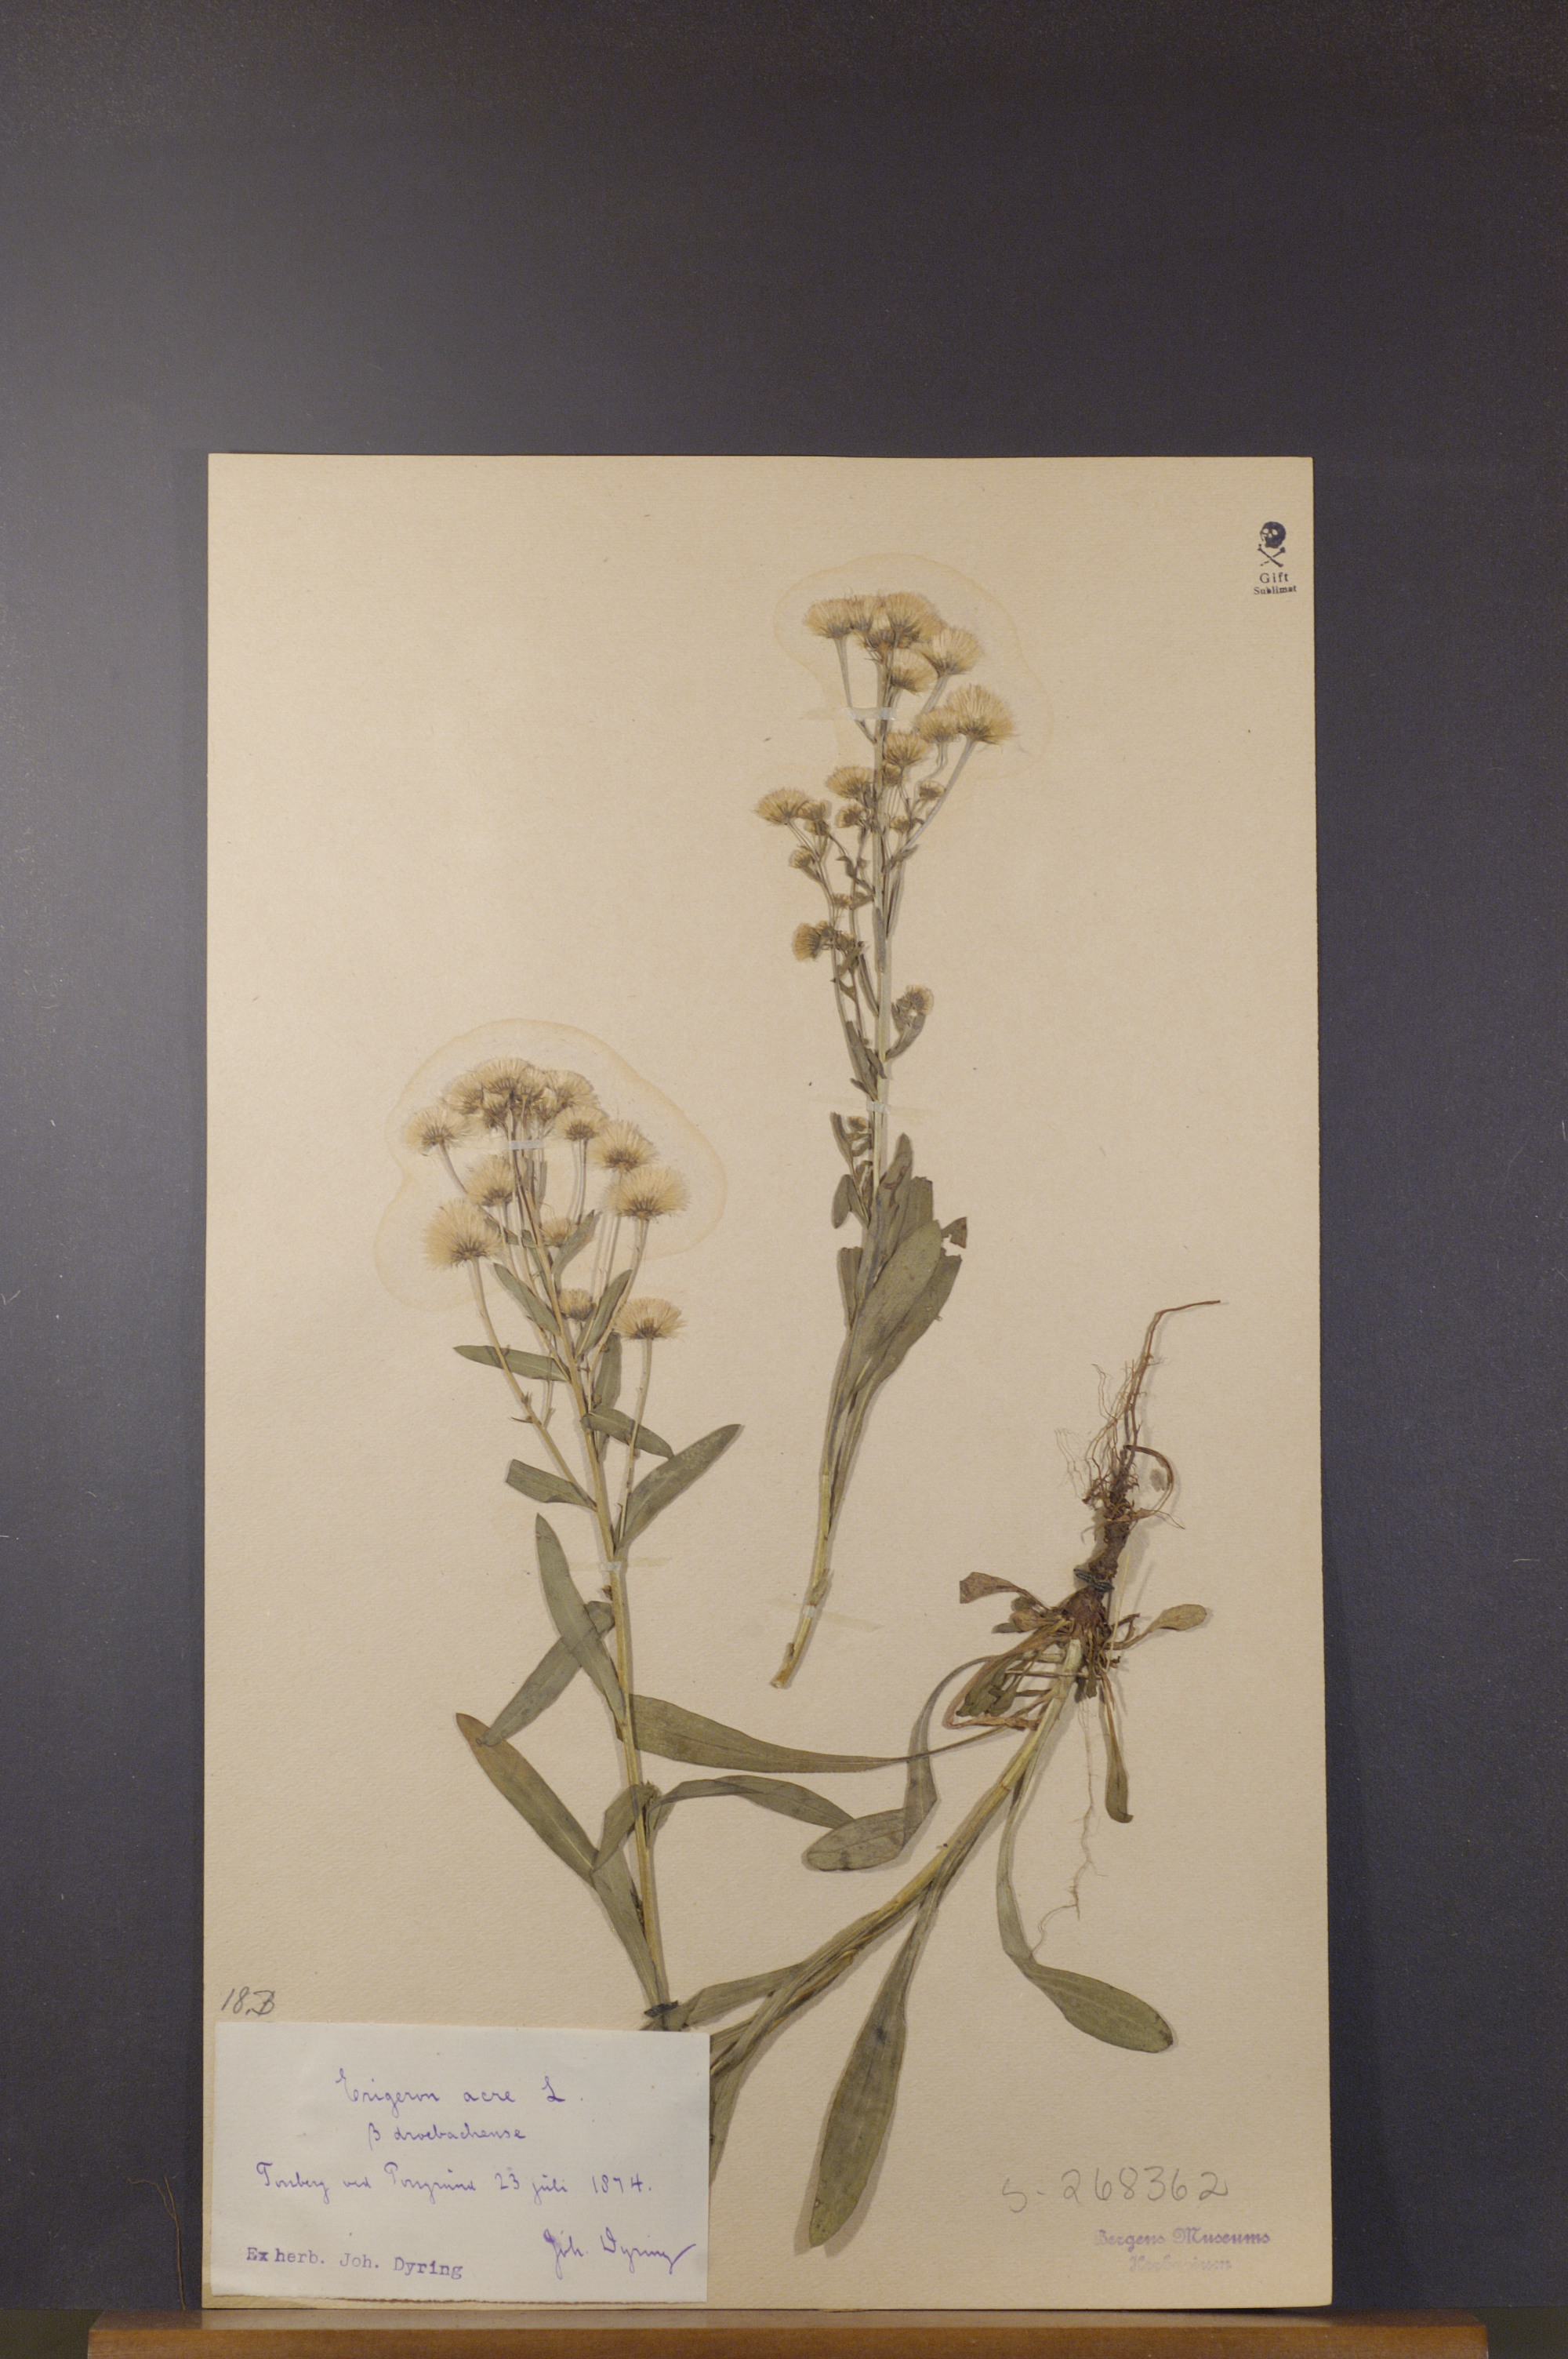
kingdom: Plantae
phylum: Tracheophyta
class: Magnoliopsida
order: Asterales
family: Asteraceae
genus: Erigeron
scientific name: Erigeron droebachiensis
